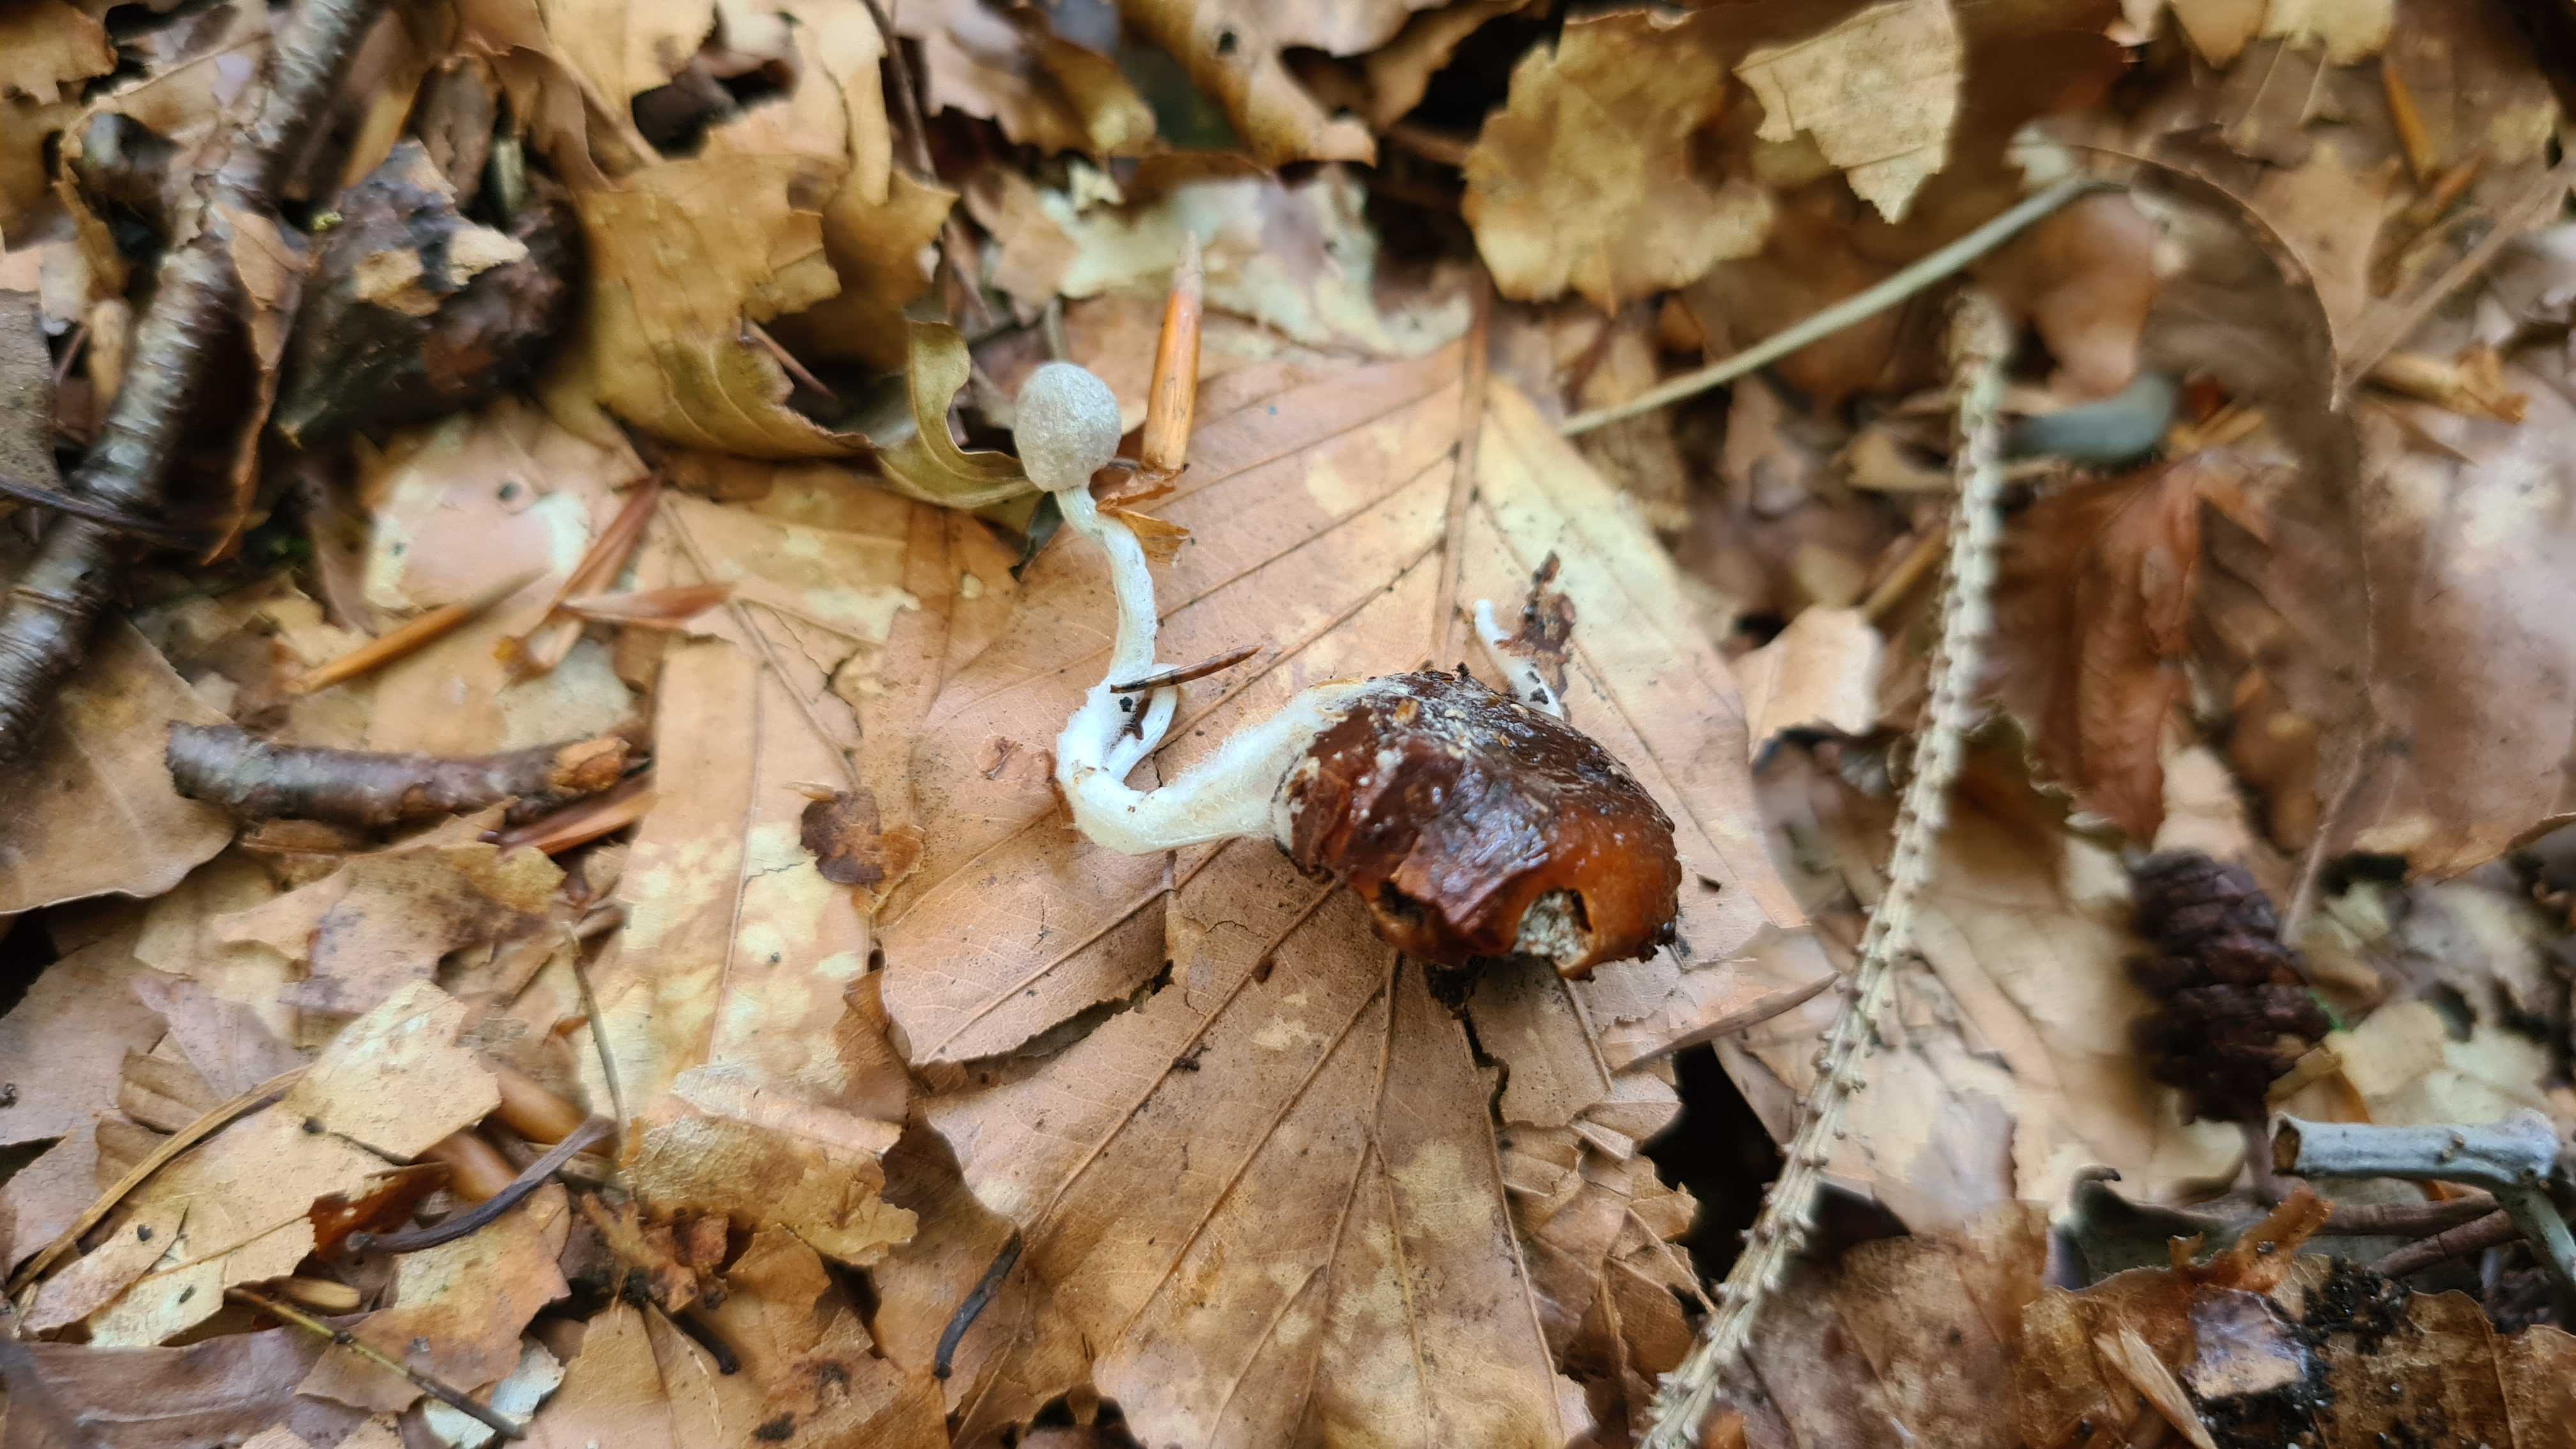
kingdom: Fungi
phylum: Basidiomycota
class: Agaricomycetes
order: Agaricales
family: Lyophyllaceae
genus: Asterophora
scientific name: Asterophora parasitica
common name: grå snyltehat
